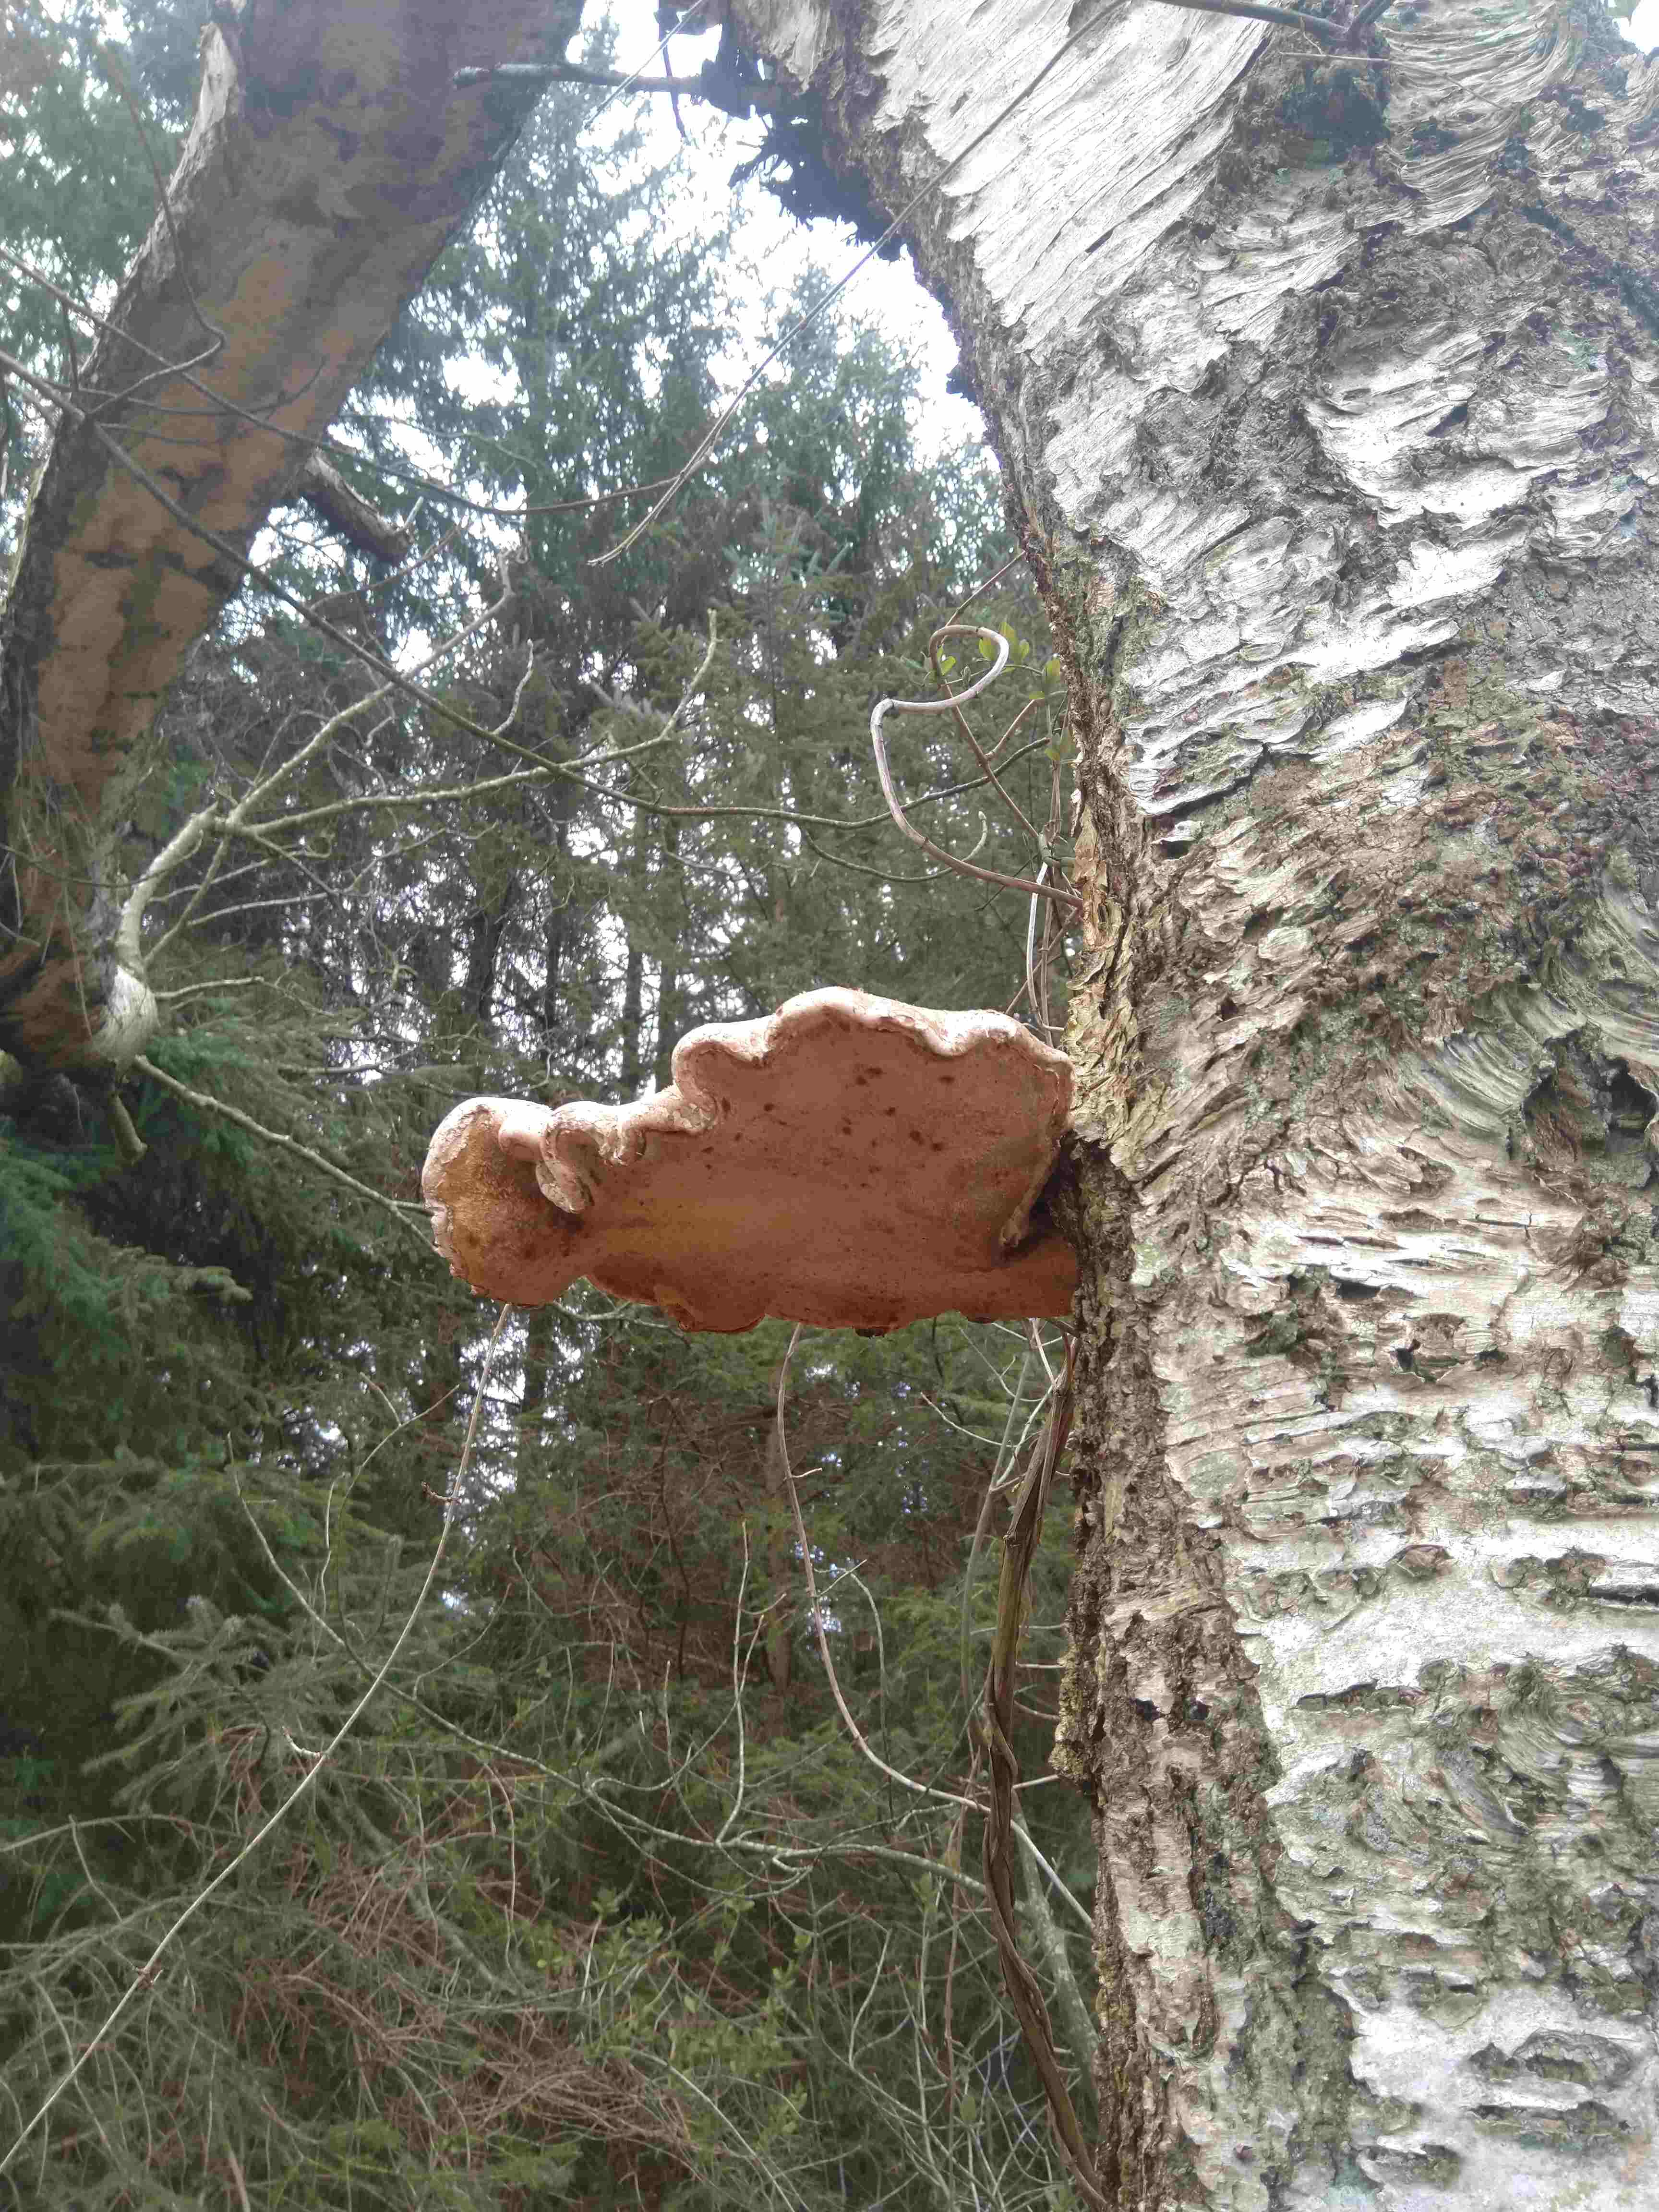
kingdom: Fungi
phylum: Basidiomycota
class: Agaricomycetes
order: Polyporales
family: Fomitopsidaceae
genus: Fomitopsis
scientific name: Fomitopsis betulina
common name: birkeporesvamp
